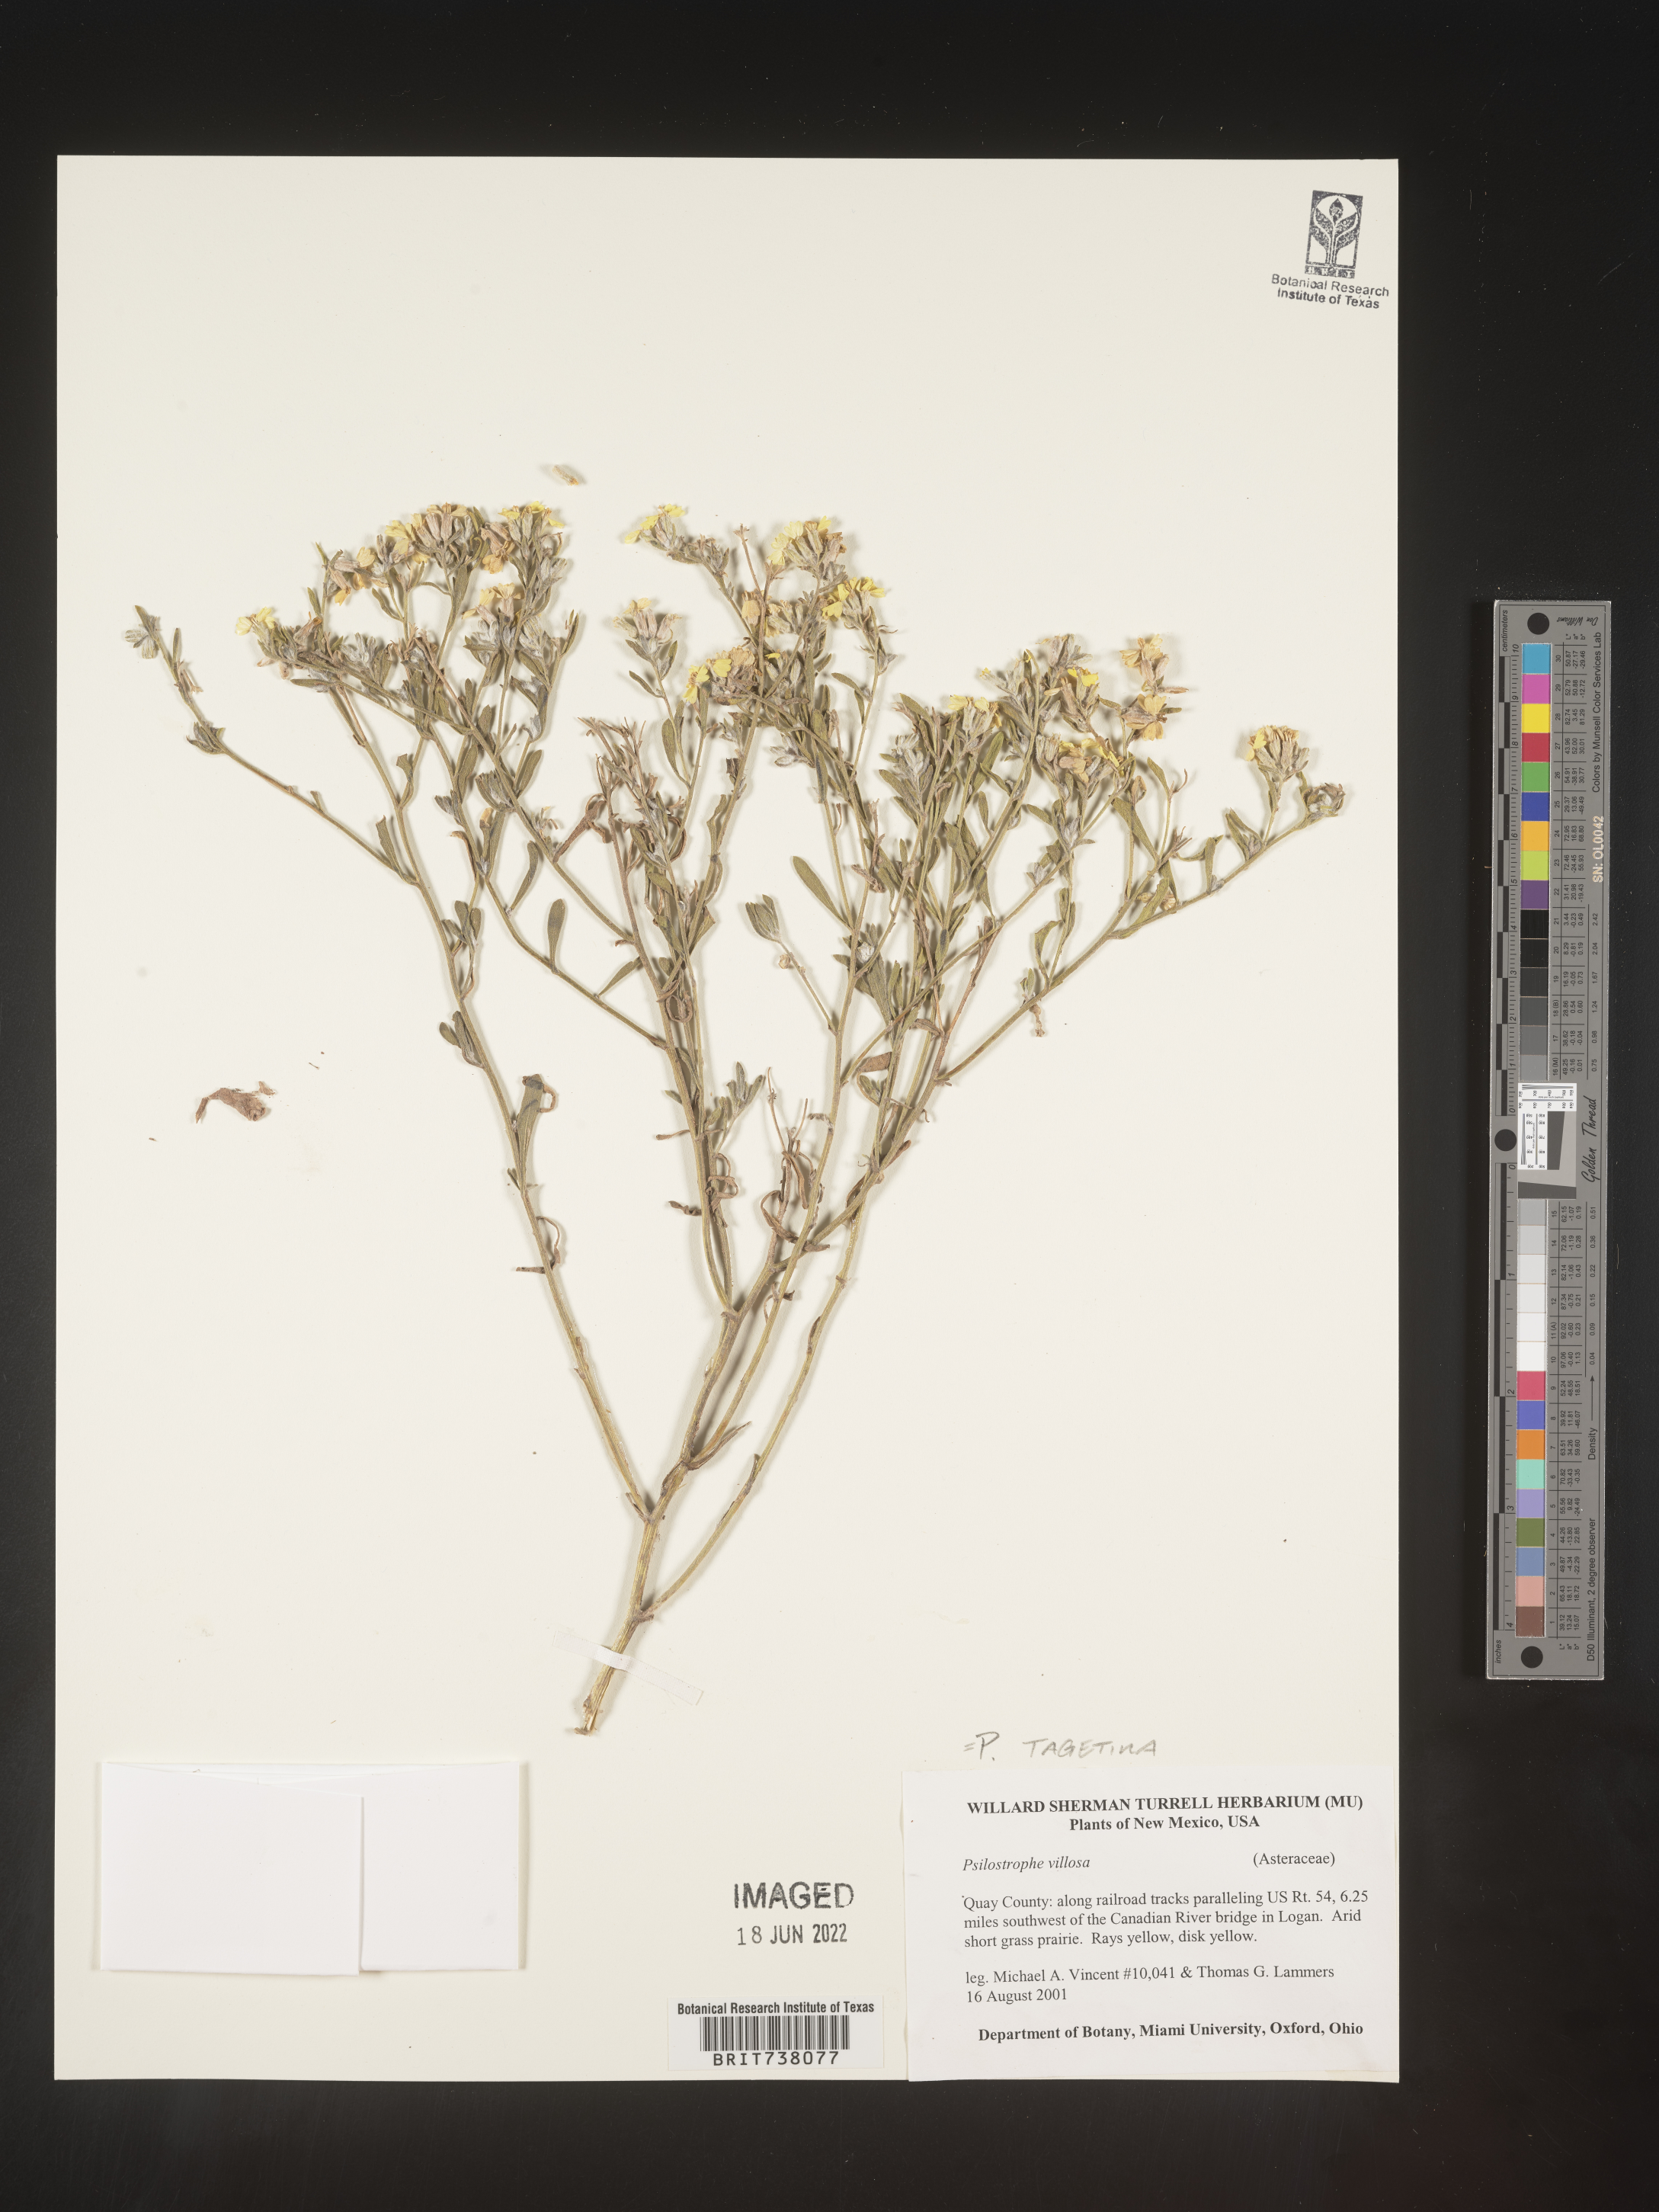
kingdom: Plantae
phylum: Tracheophyta
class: Magnoliopsida
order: Asterales
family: Asteraceae
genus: Psilostrophe
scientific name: Psilostrophe tagetina
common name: Marigold paper-flower
